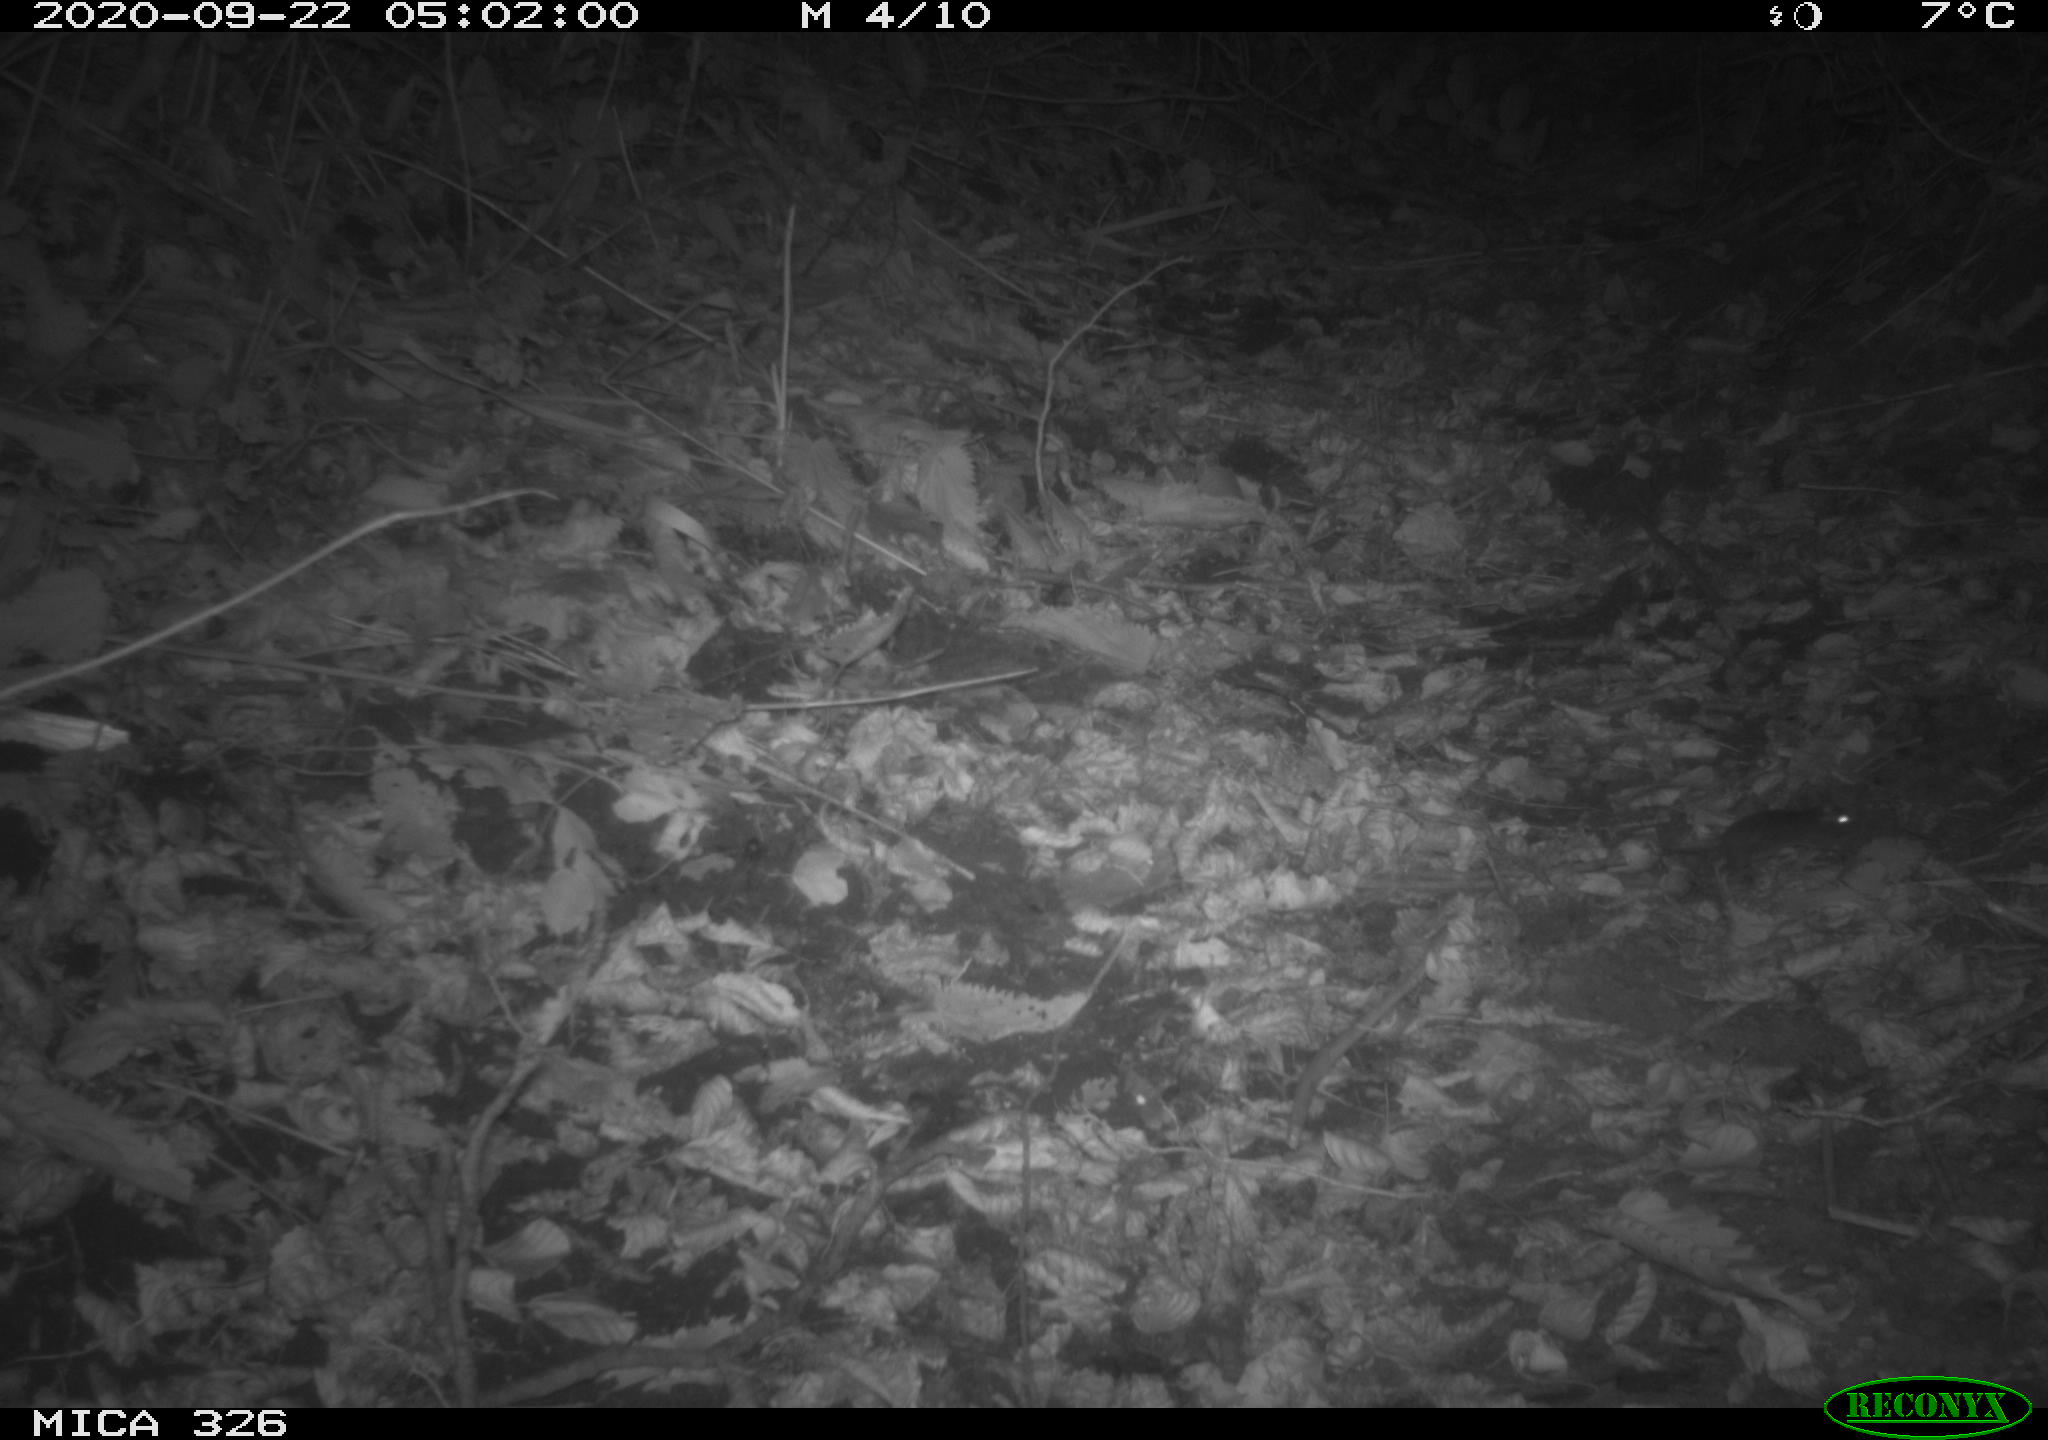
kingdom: Animalia
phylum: Chordata
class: Mammalia
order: Rodentia
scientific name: Rodentia
